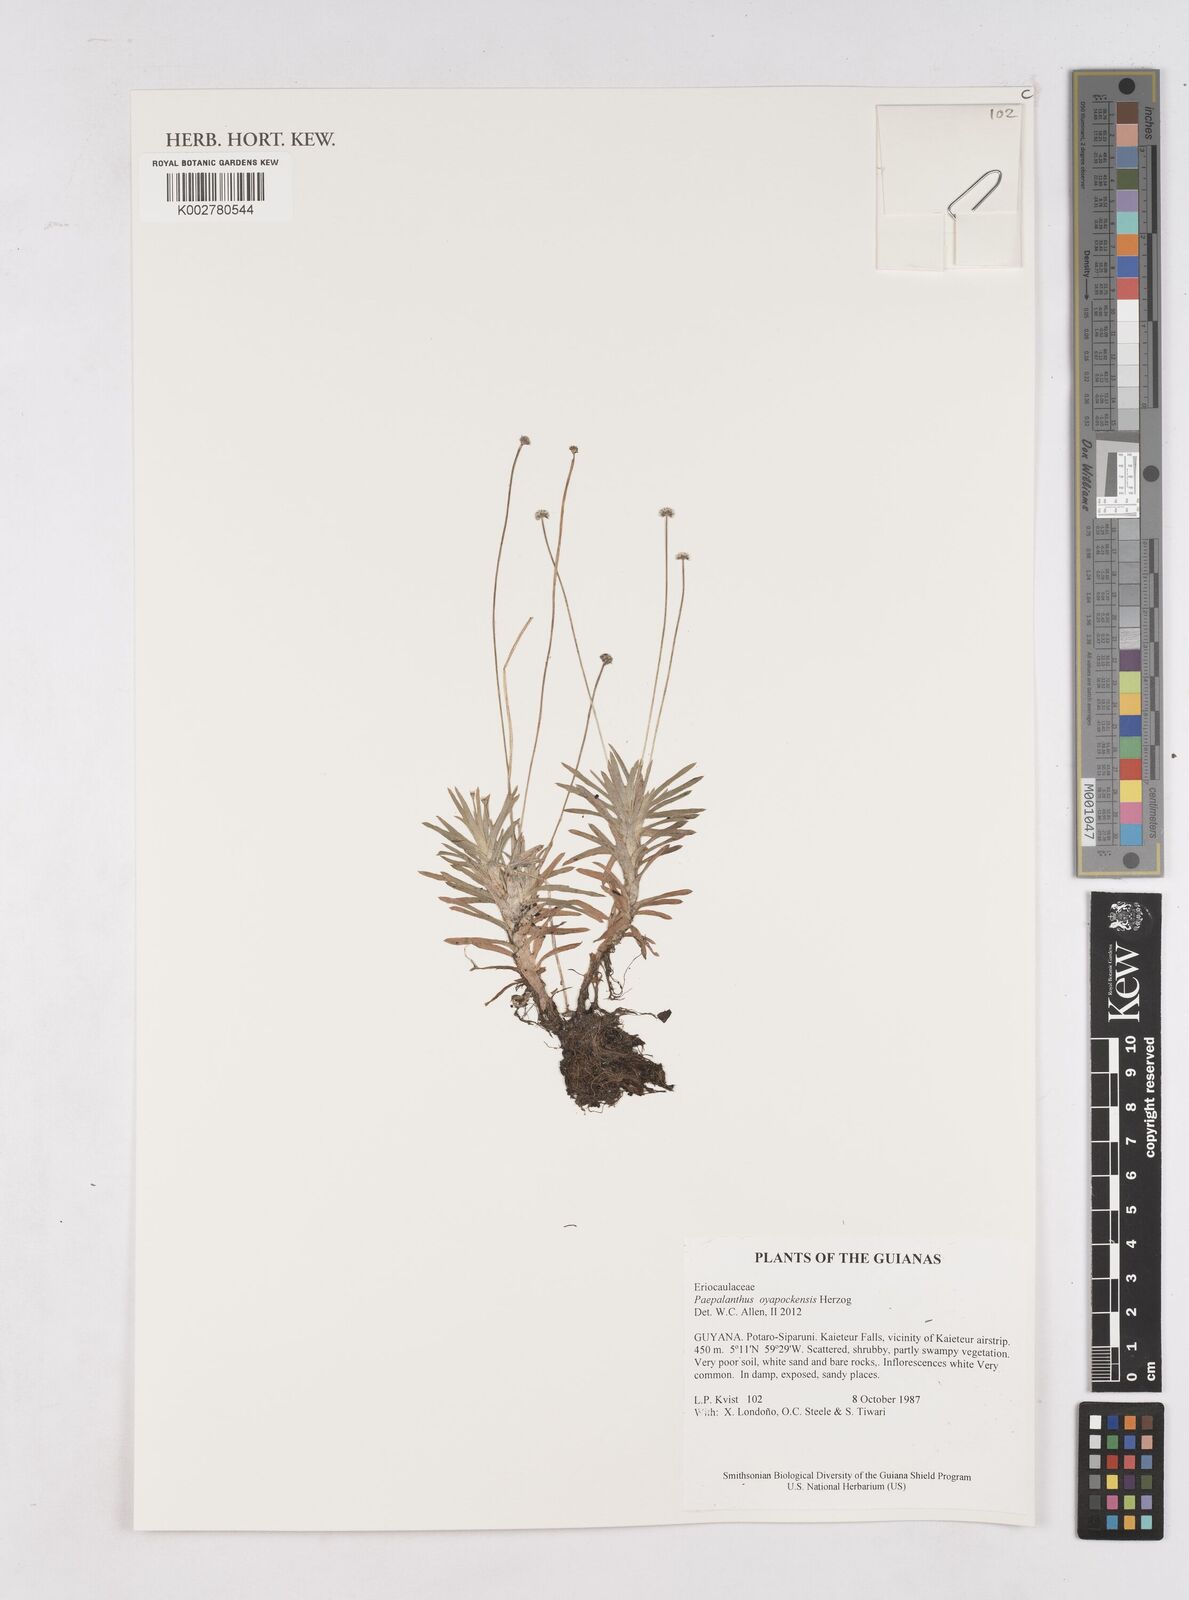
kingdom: Plantae
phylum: Tracheophyta
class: Liliopsida
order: Poales
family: Eriocaulaceae
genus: Paepalanthus
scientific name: Paepalanthus oyapockensis
